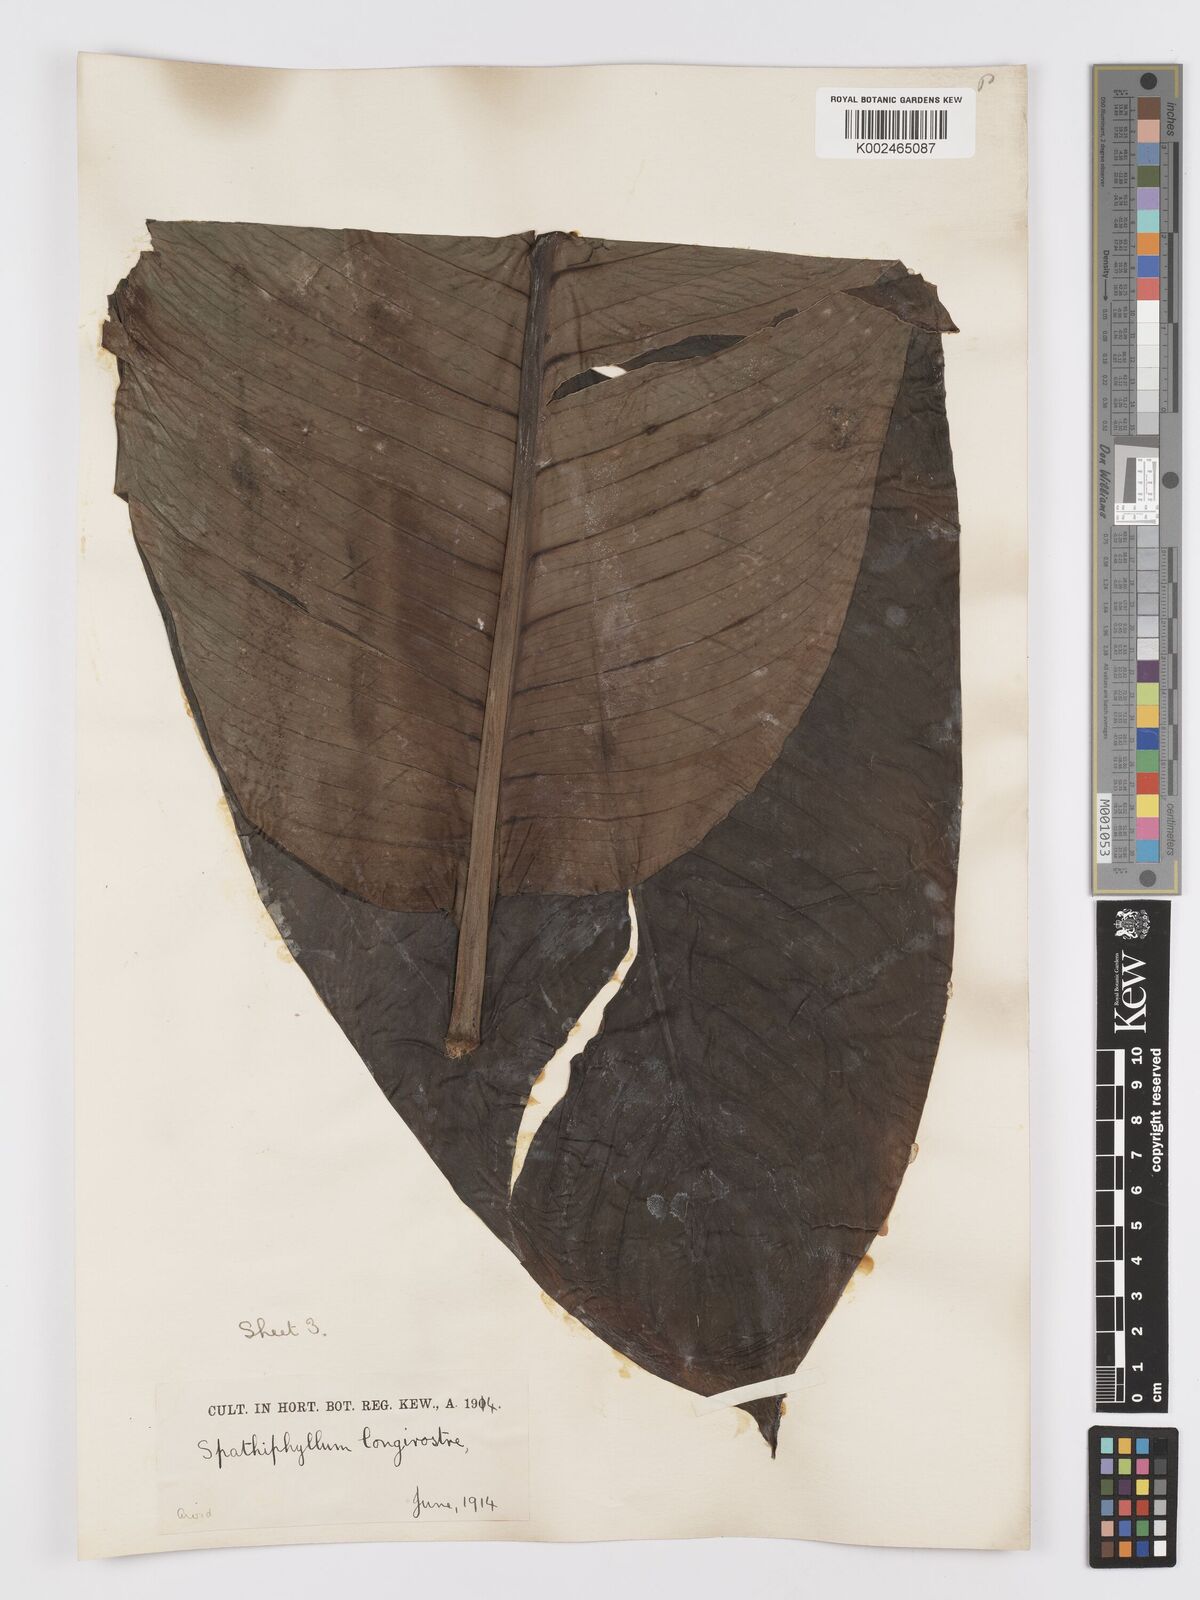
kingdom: Plantae
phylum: Tracheophyta
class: Liliopsida
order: Alismatales
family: Araceae
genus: Spathiphyllum
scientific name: Spathiphyllum cochlearispathum
